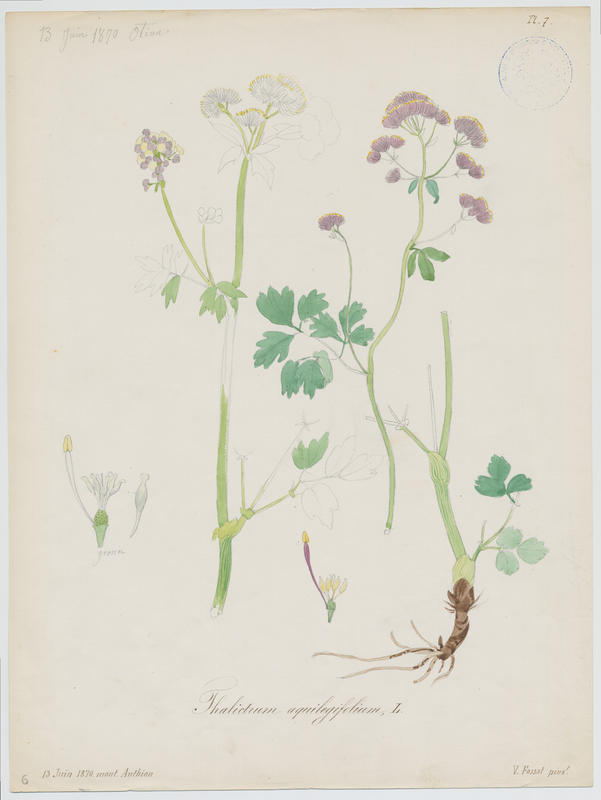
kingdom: Plantae
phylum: Tracheophyta
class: Magnoliopsida
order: Ranunculales
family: Ranunculaceae
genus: Thalictrum
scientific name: Thalictrum aquilegiifolium
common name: French meadow-rue
